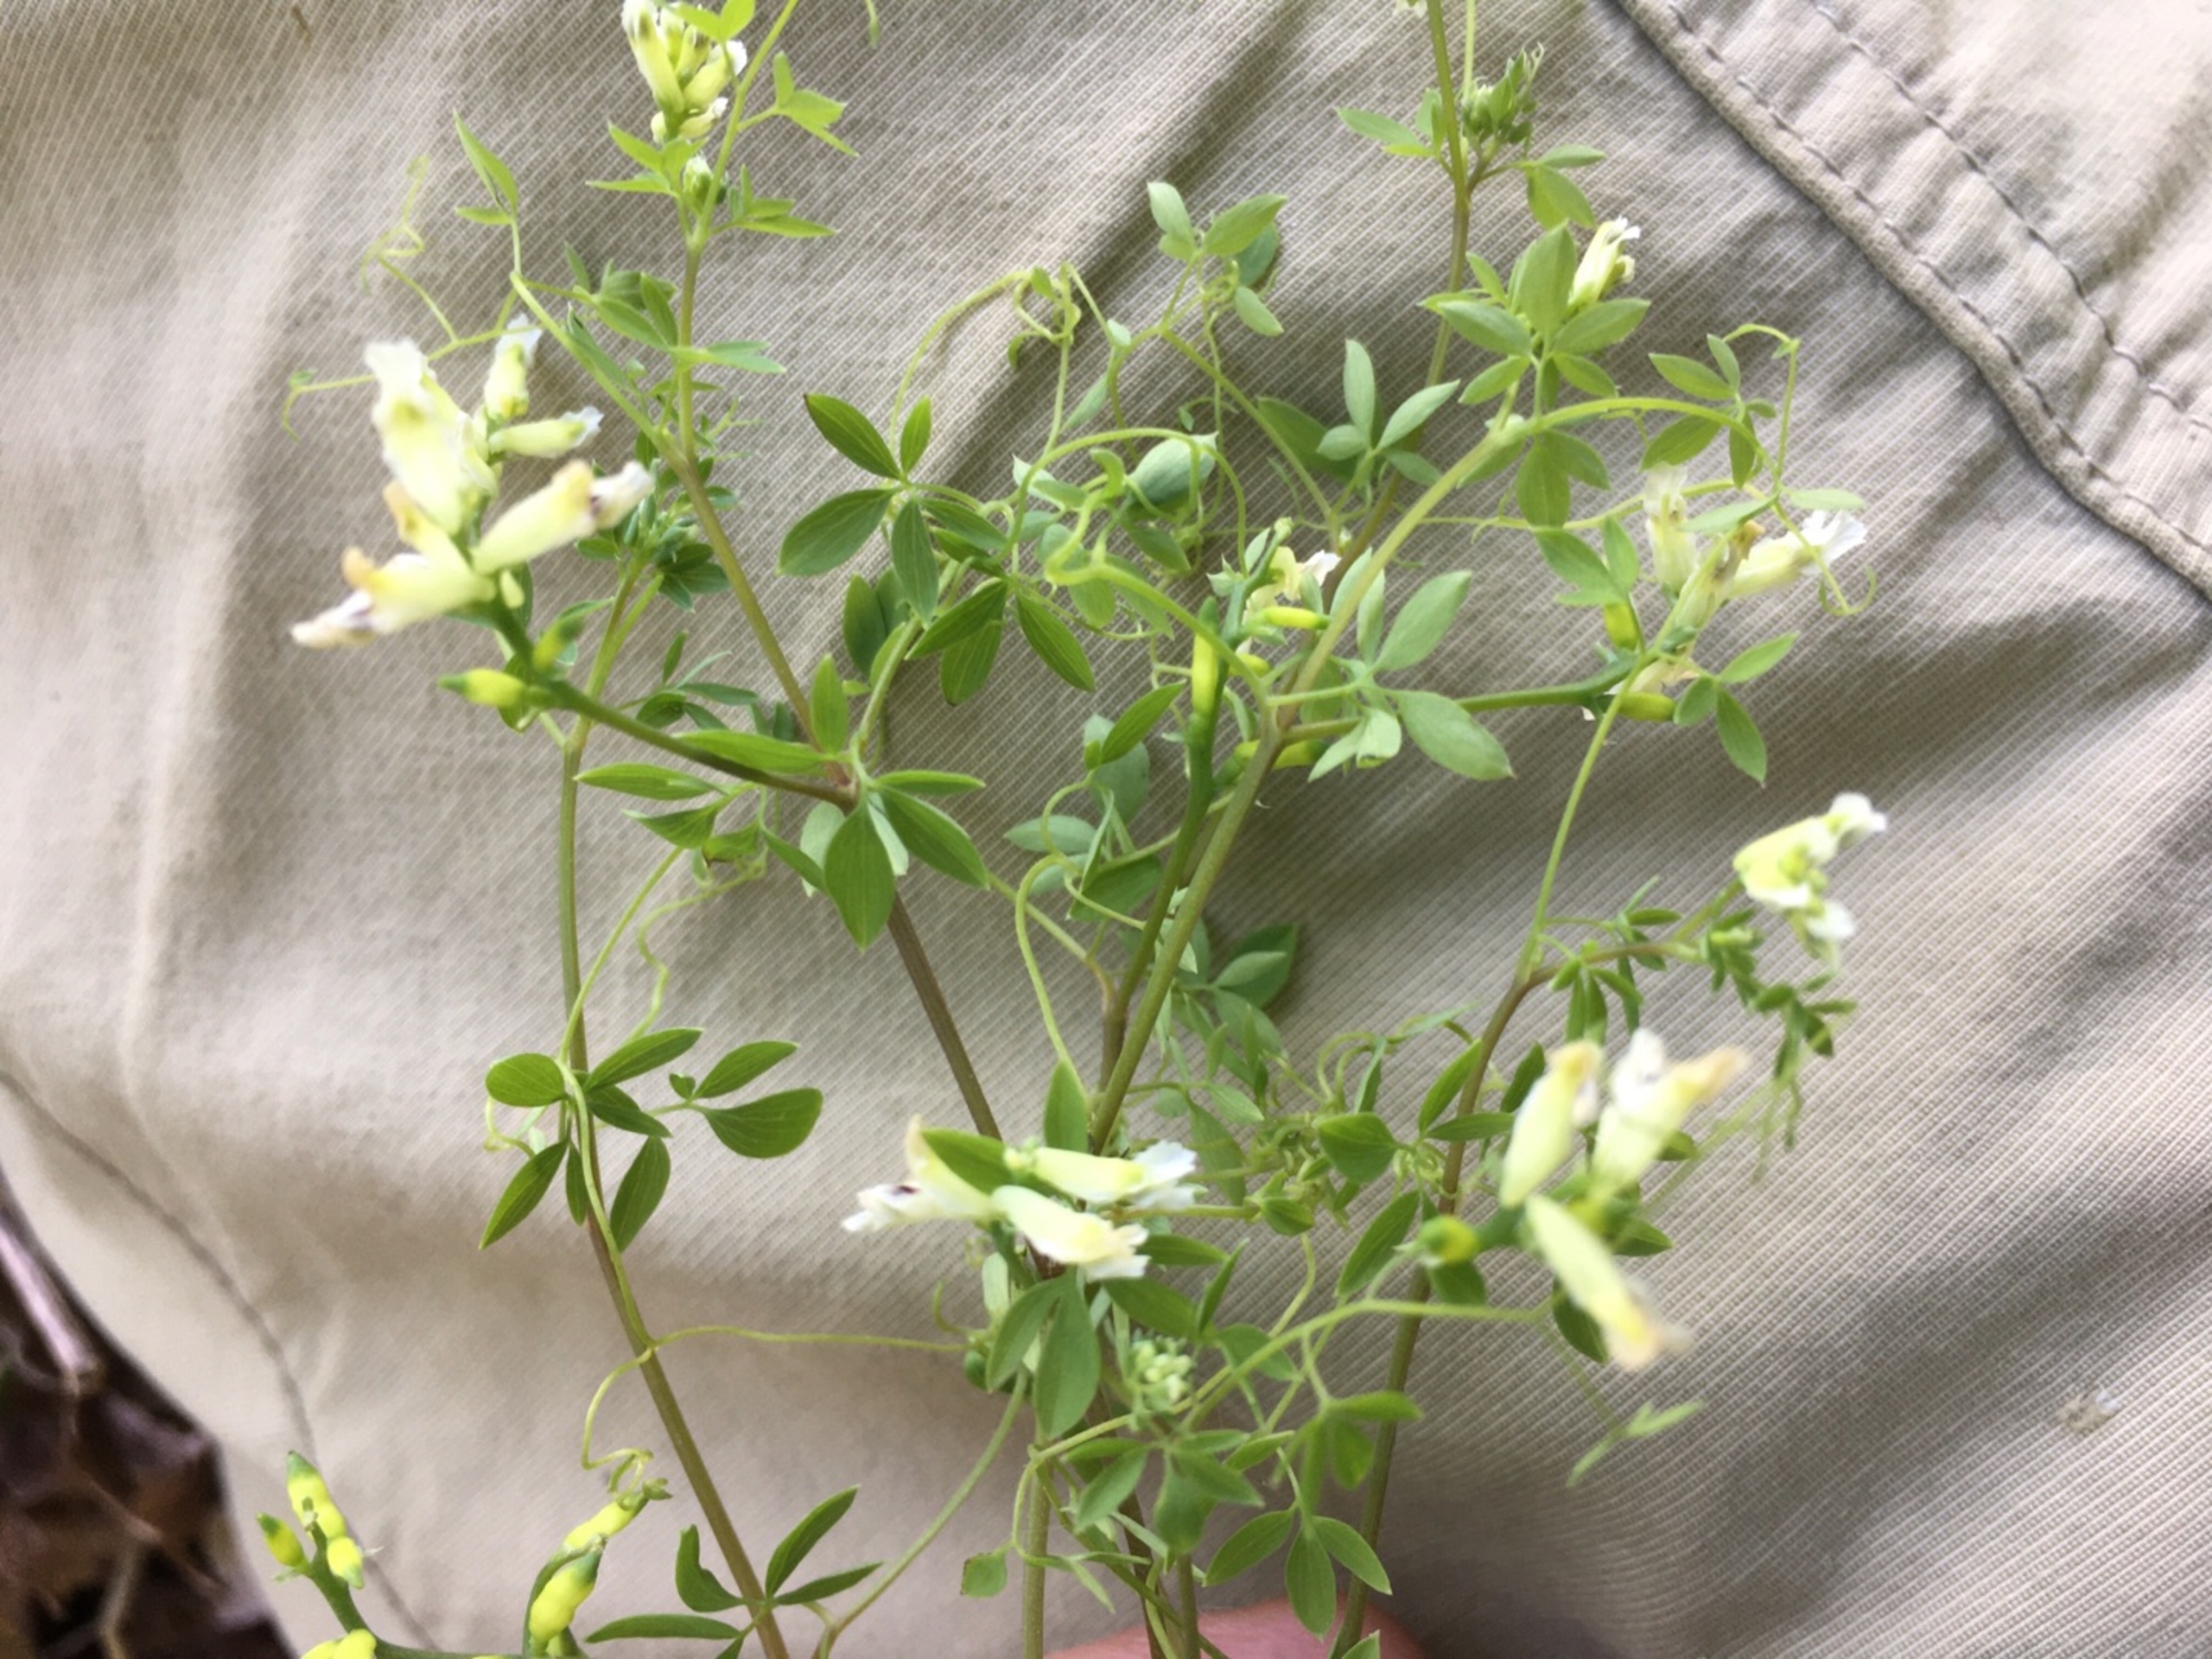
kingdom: Plantae
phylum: Tracheophyta
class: Magnoliopsida
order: Ranunculales
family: Papaveraceae
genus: Ceratocapnos
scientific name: Ceratocapnos claviculata
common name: Klatrende lærkespore
